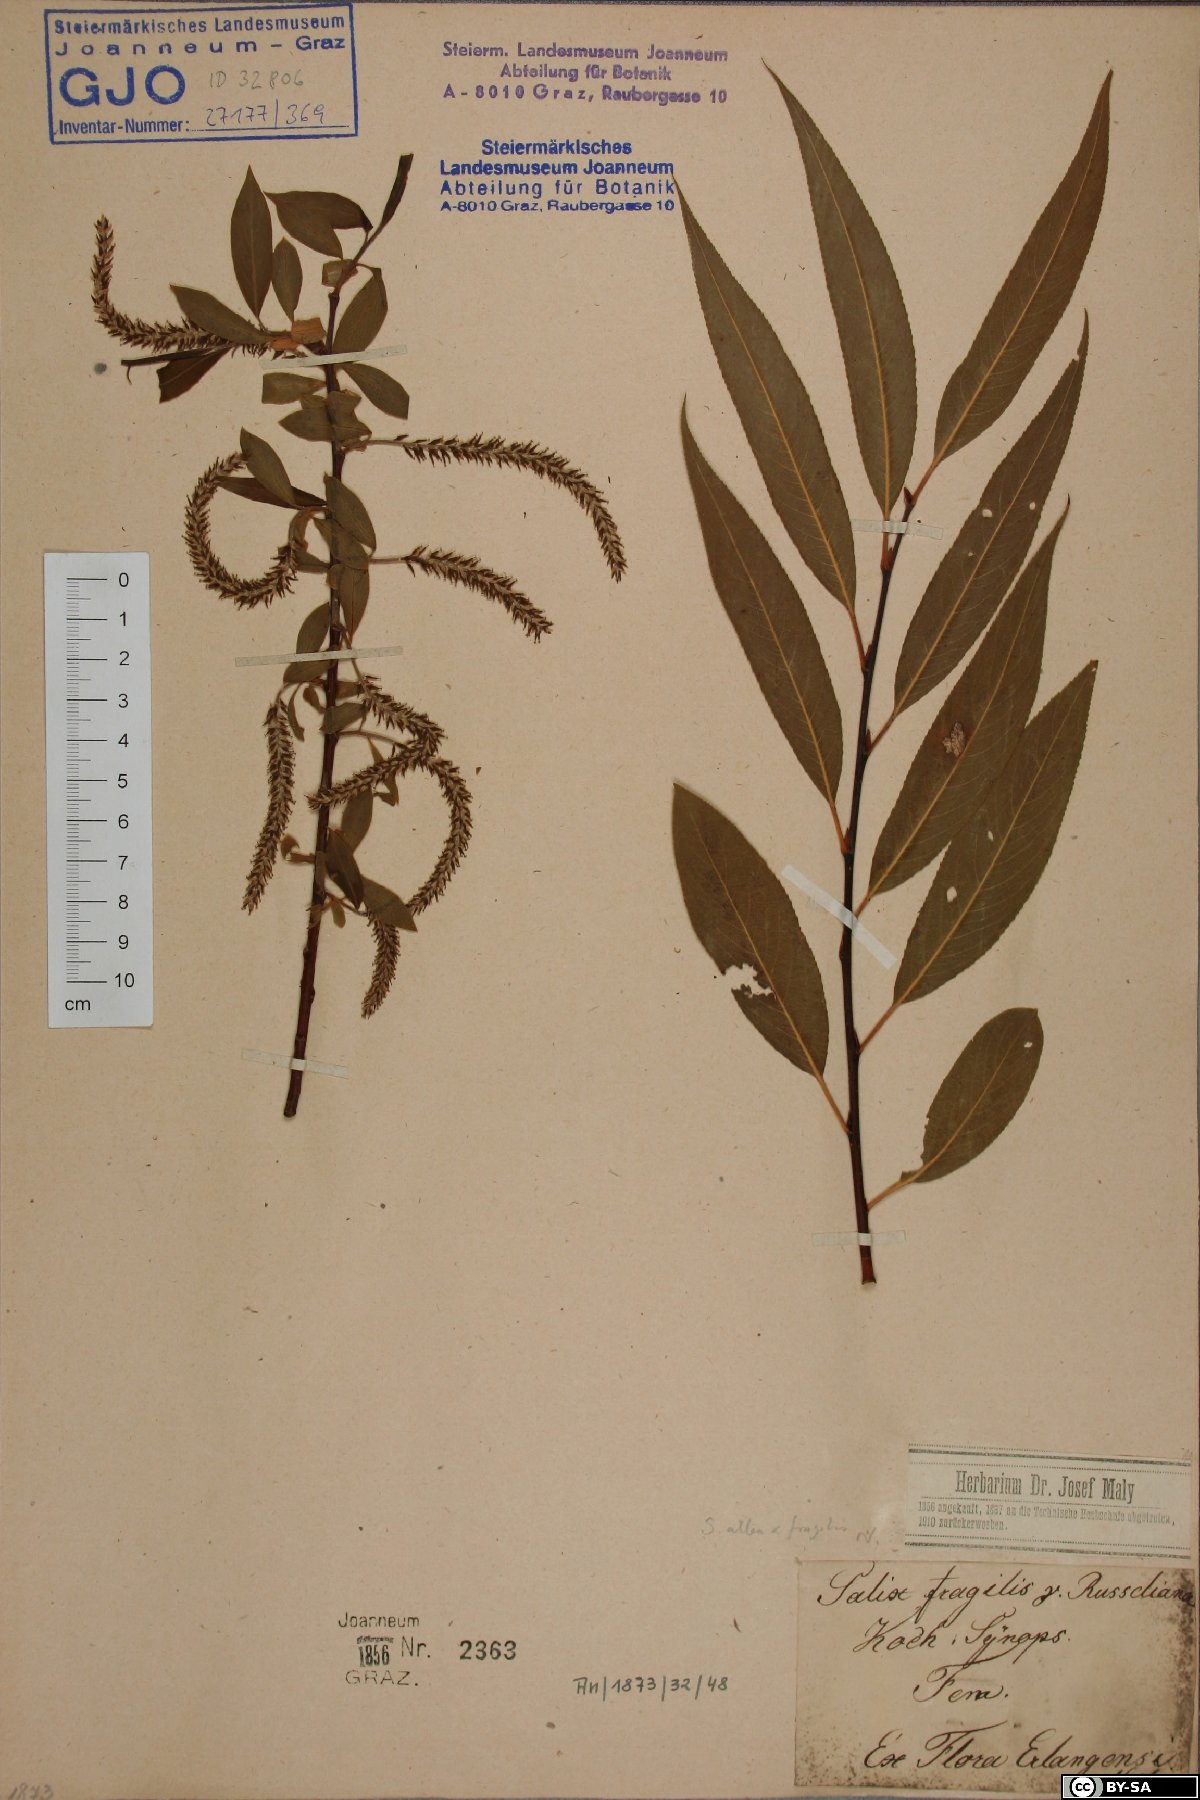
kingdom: Plantae
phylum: Tracheophyta
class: Magnoliopsida
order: Malpighiales
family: Salicaceae
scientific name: Salicaceae
